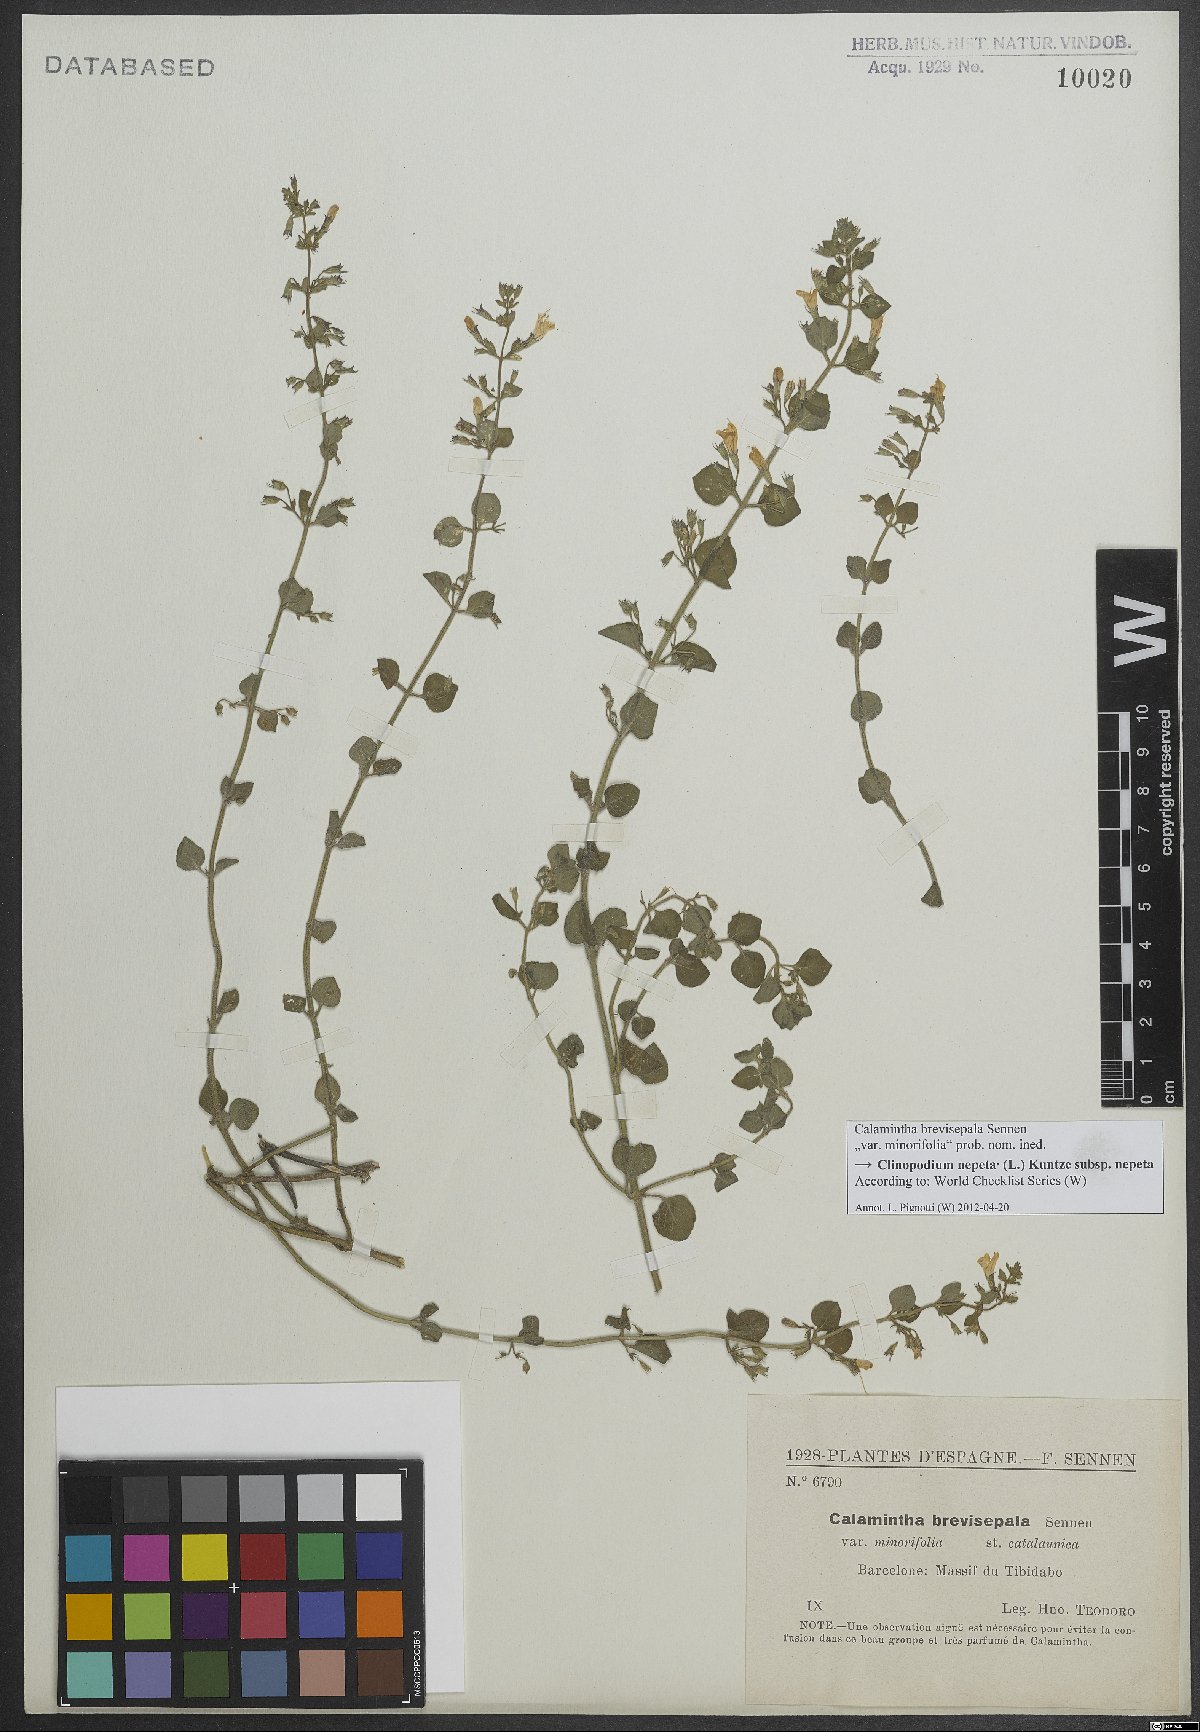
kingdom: Plantae
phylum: Tracheophyta
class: Magnoliopsida
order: Lamiales
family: Lamiaceae
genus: Clinopodium
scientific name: Clinopodium nepeta
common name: Lesser calamint
